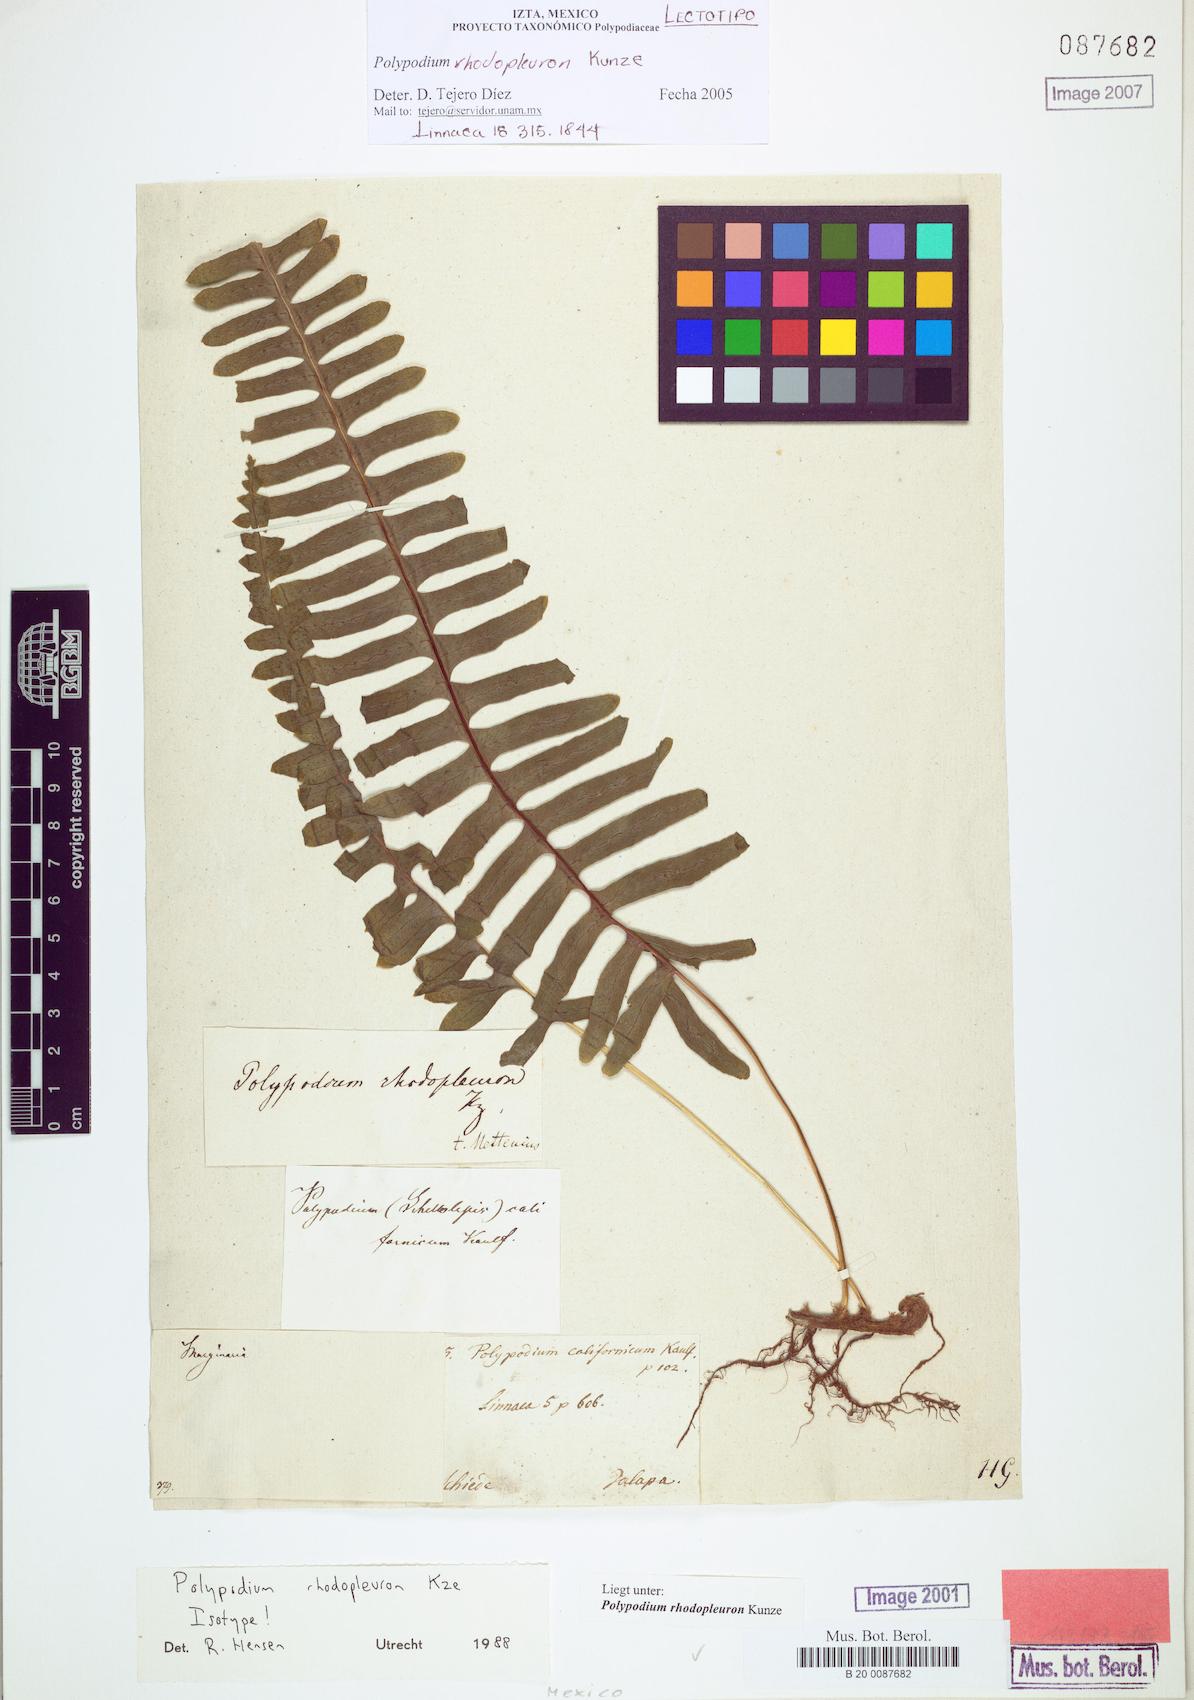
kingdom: Plantae
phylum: Tracheophyta
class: Polypodiopsida
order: Polypodiales
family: Polypodiaceae
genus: Polypodium
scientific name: Polypodium rhodopleuron
